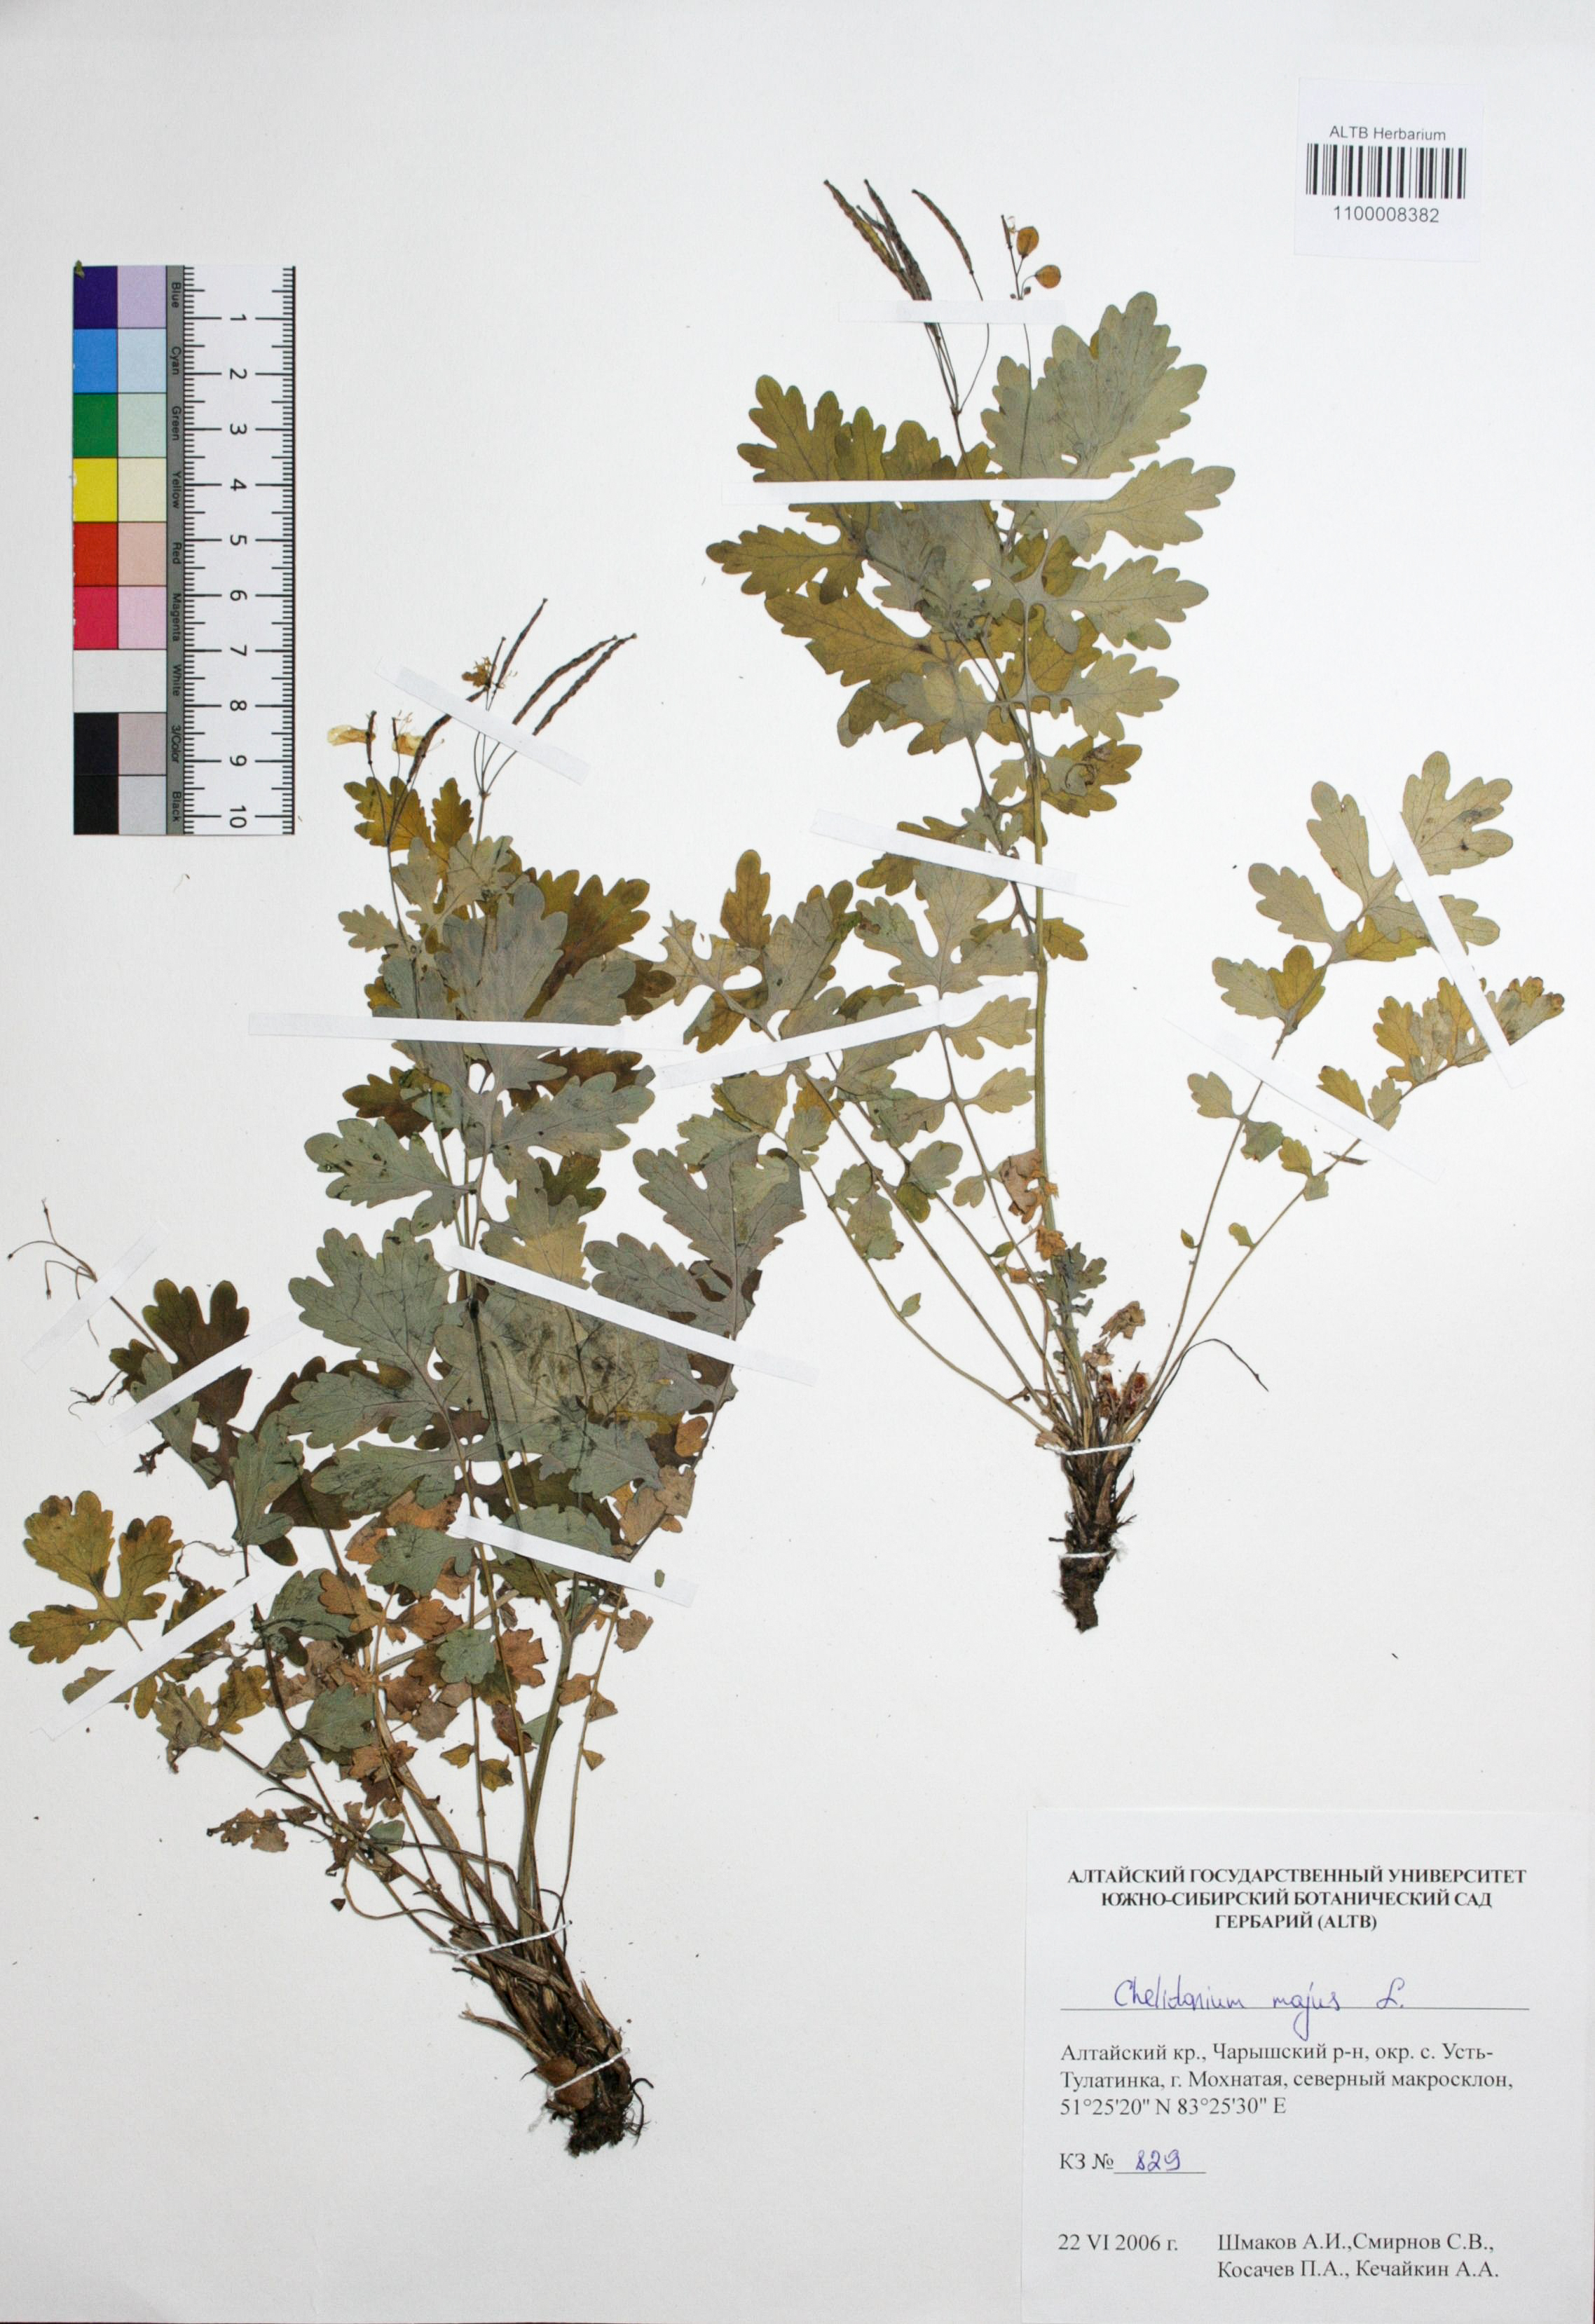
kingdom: Plantae
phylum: Tracheophyta
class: Magnoliopsida
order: Ranunculales
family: Papaveraceae
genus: Chelidonium
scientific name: Chelidonium majus
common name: Greater celandine
